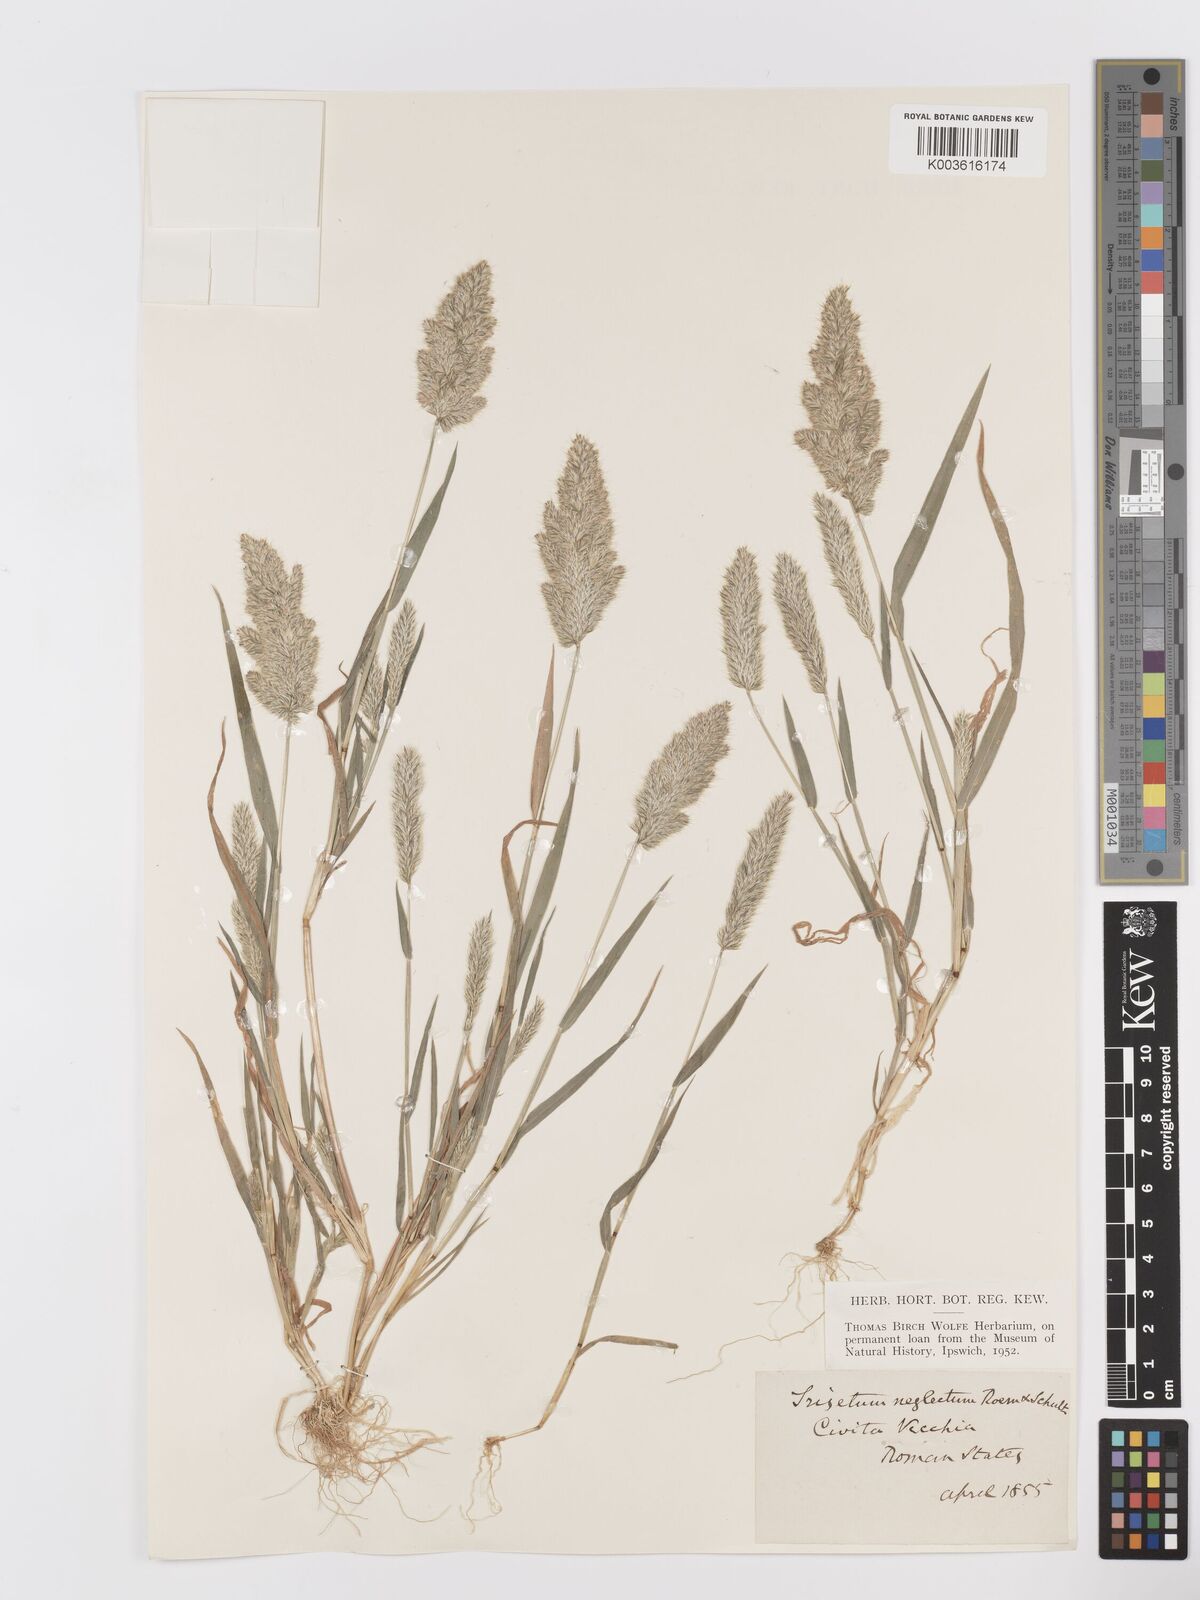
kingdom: Plantae
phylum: Tracheophyta
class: Liliopsida
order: Poales
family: Poaceae
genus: Trisetaria
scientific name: Trisetaria panicea
